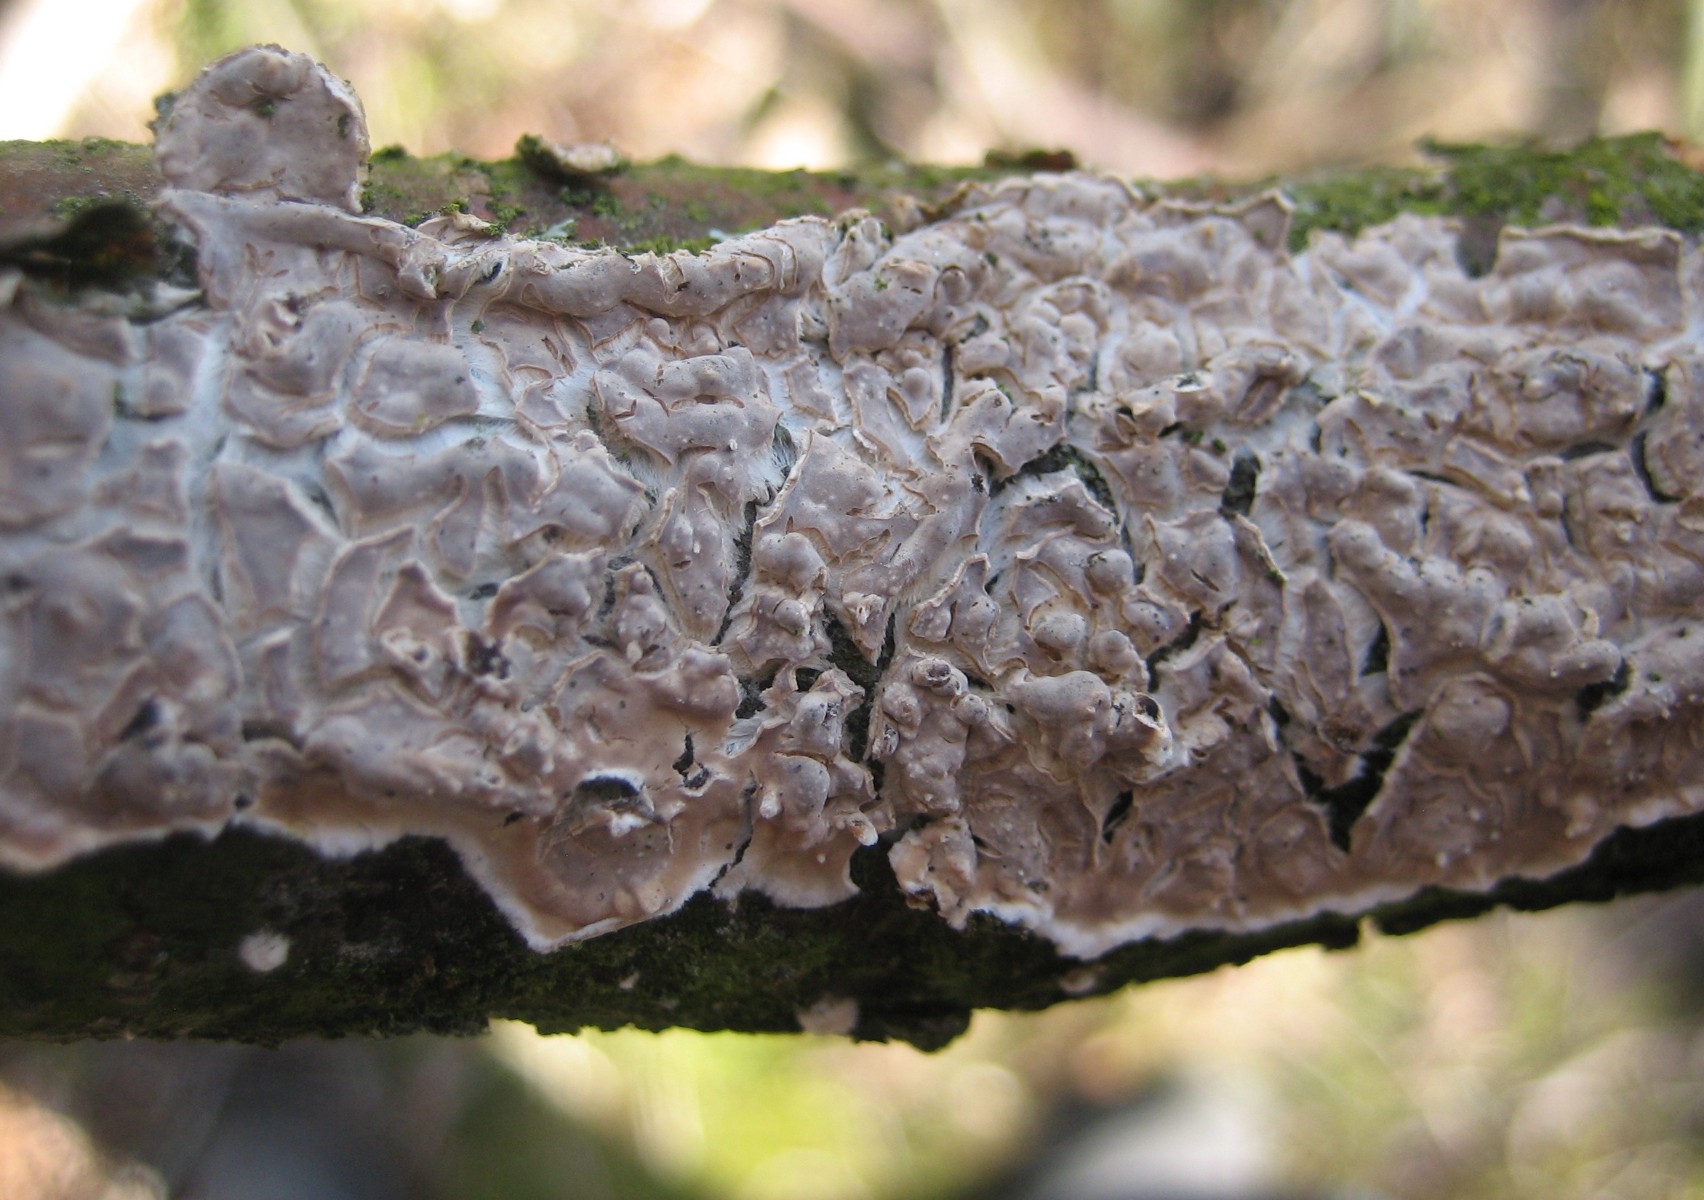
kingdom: Fungi
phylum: Basidiomycota
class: Agaricomycetes
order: Agaricales
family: Physalacriaceae
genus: Cylindrobasidium
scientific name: Cylindrobasidium evolvens
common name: sprækkehinde
